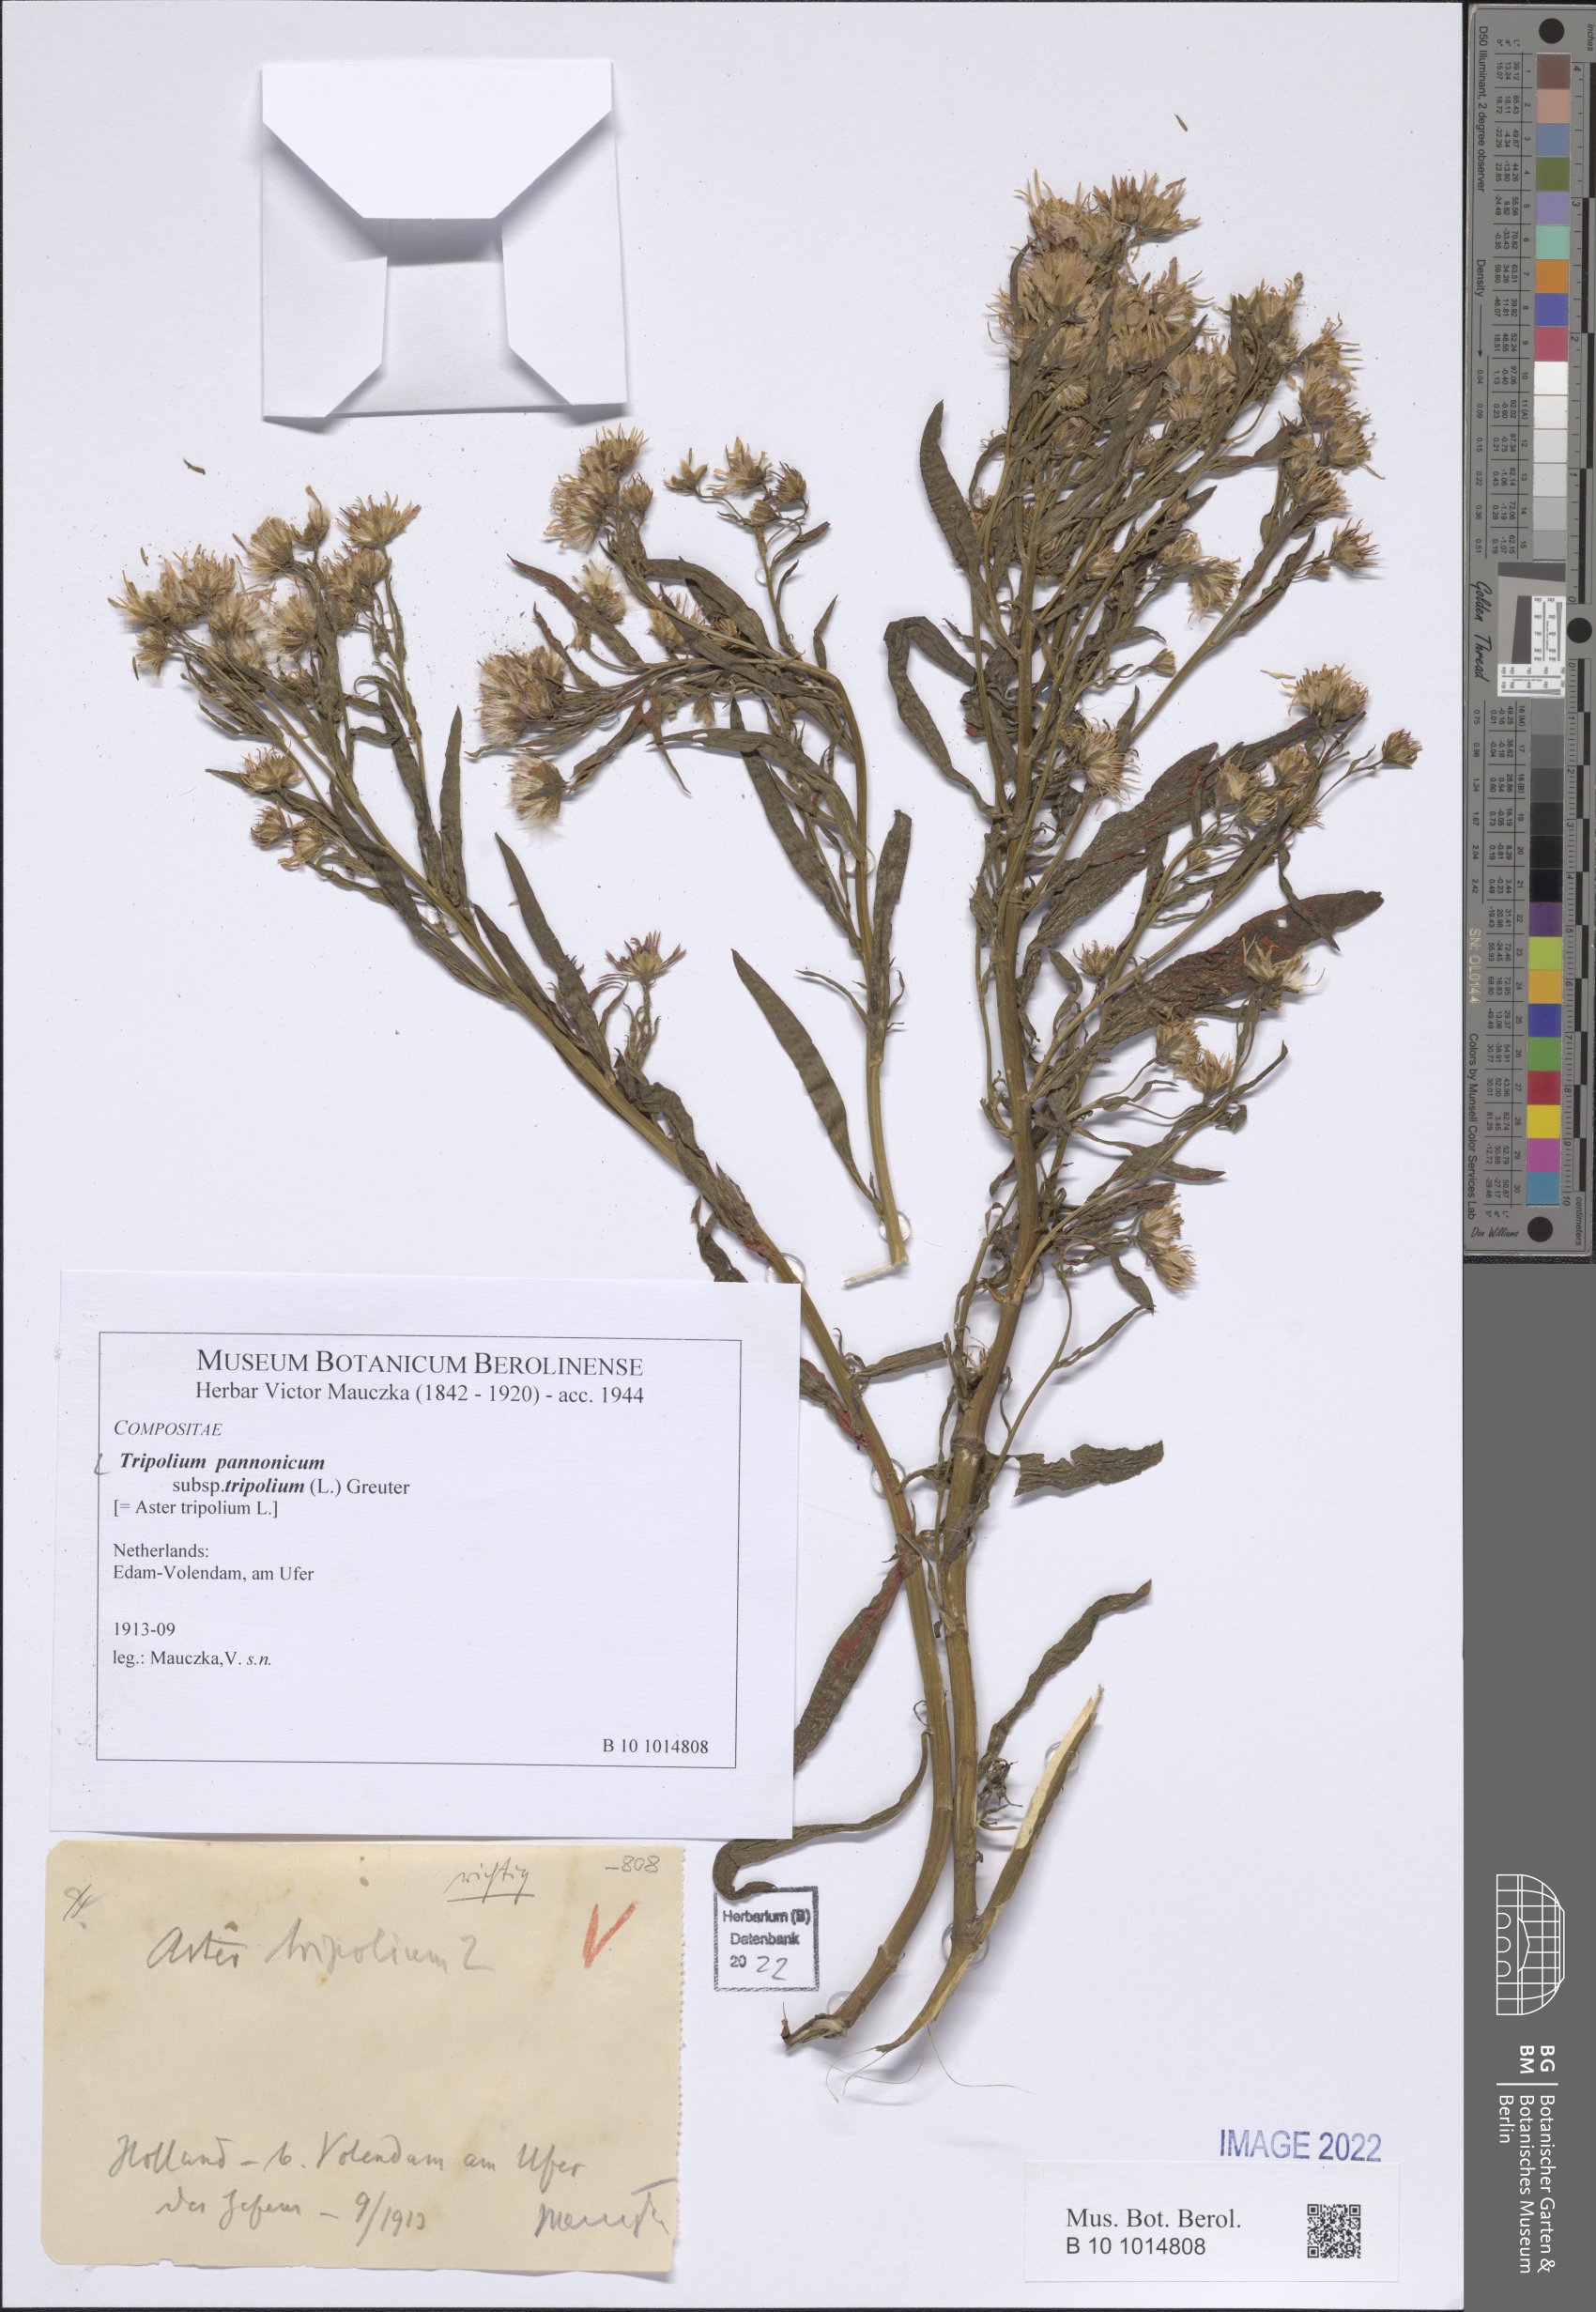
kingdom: Plantae
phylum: Tracheophyta
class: Magnoliopsida
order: Asterales
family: Asteraceae
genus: Tripolium
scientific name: Tripolium pannonicum
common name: Sea aster
